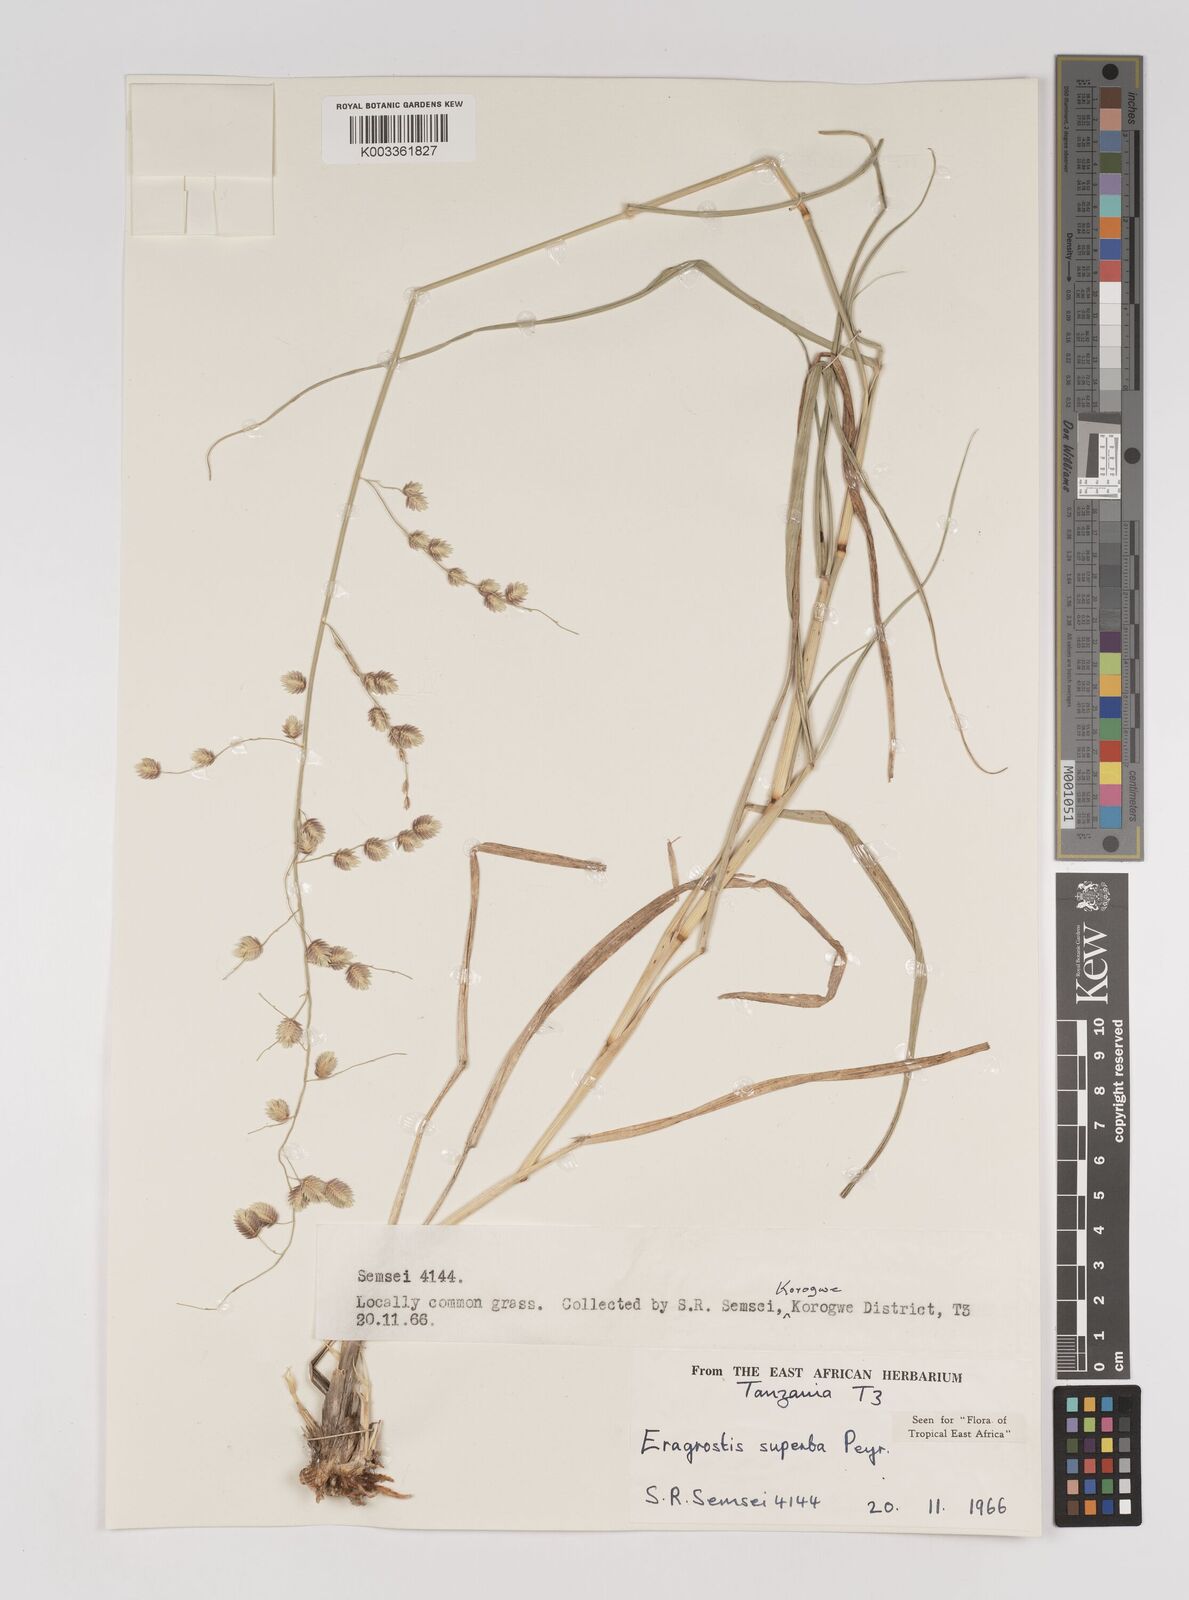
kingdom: Plantae
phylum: Tracheophyta
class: Liliopsida
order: Poales
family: Poaceae
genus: Eragrostis
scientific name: Eragrostis superba
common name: Wilman lovegrass
